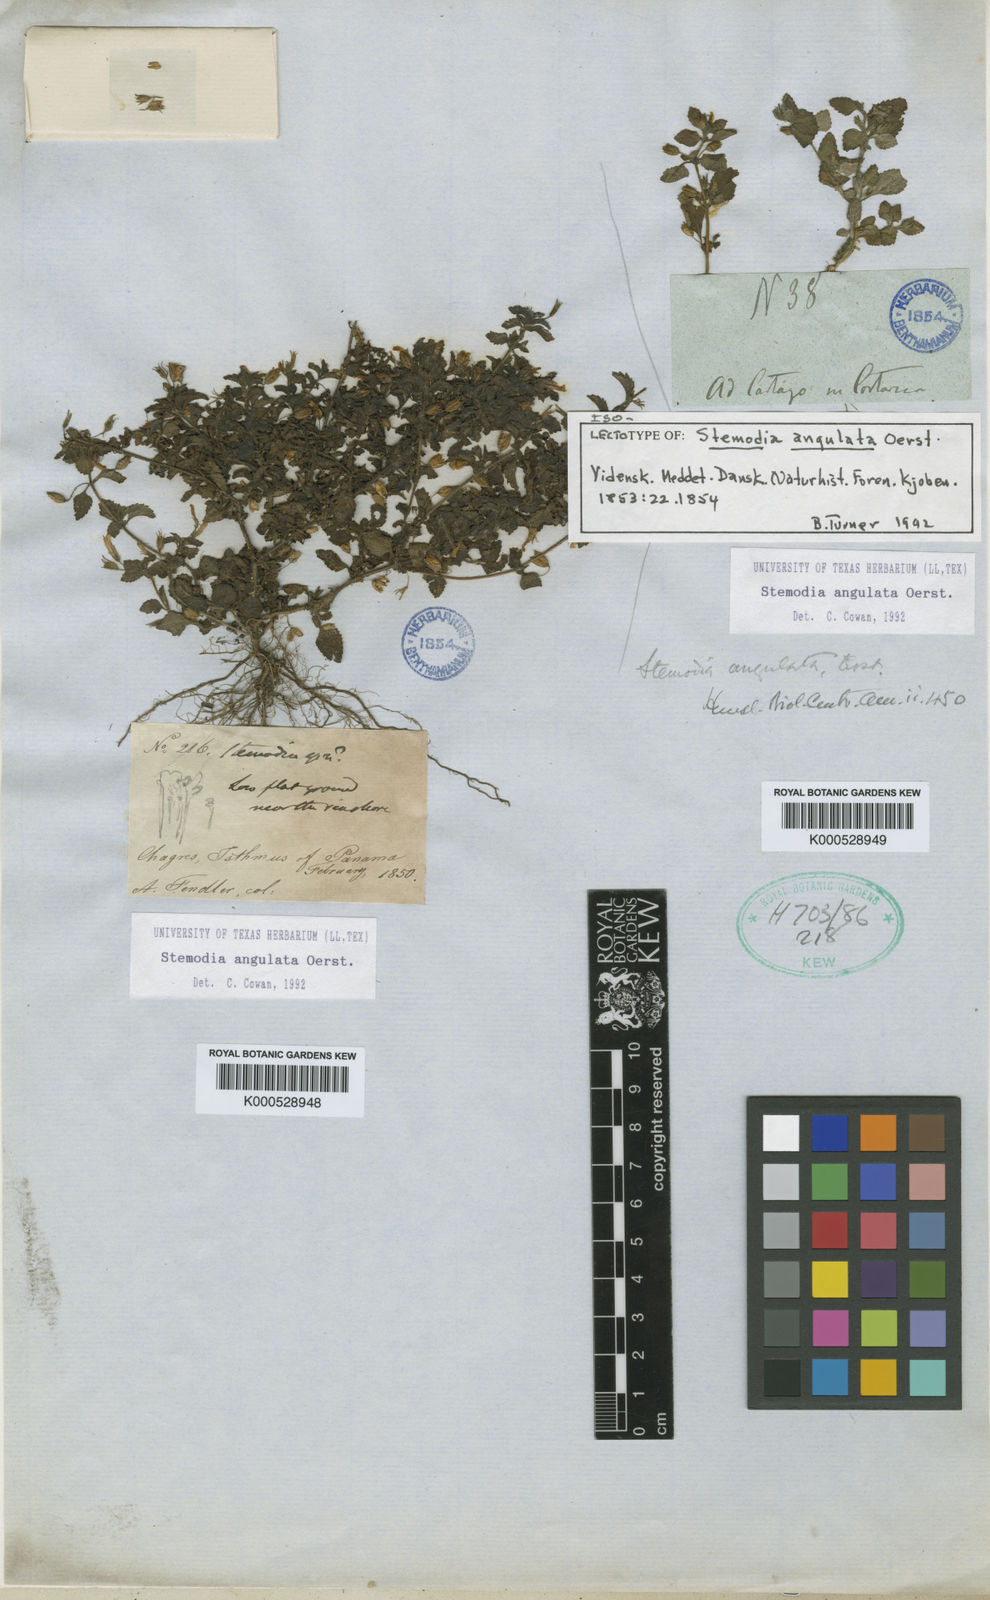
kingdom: Plantae
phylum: Tracheophyta
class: Magnoliopsida
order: Lamiales
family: Plantaginaceae
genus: Stemodia
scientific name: Stemodia jorullensis
